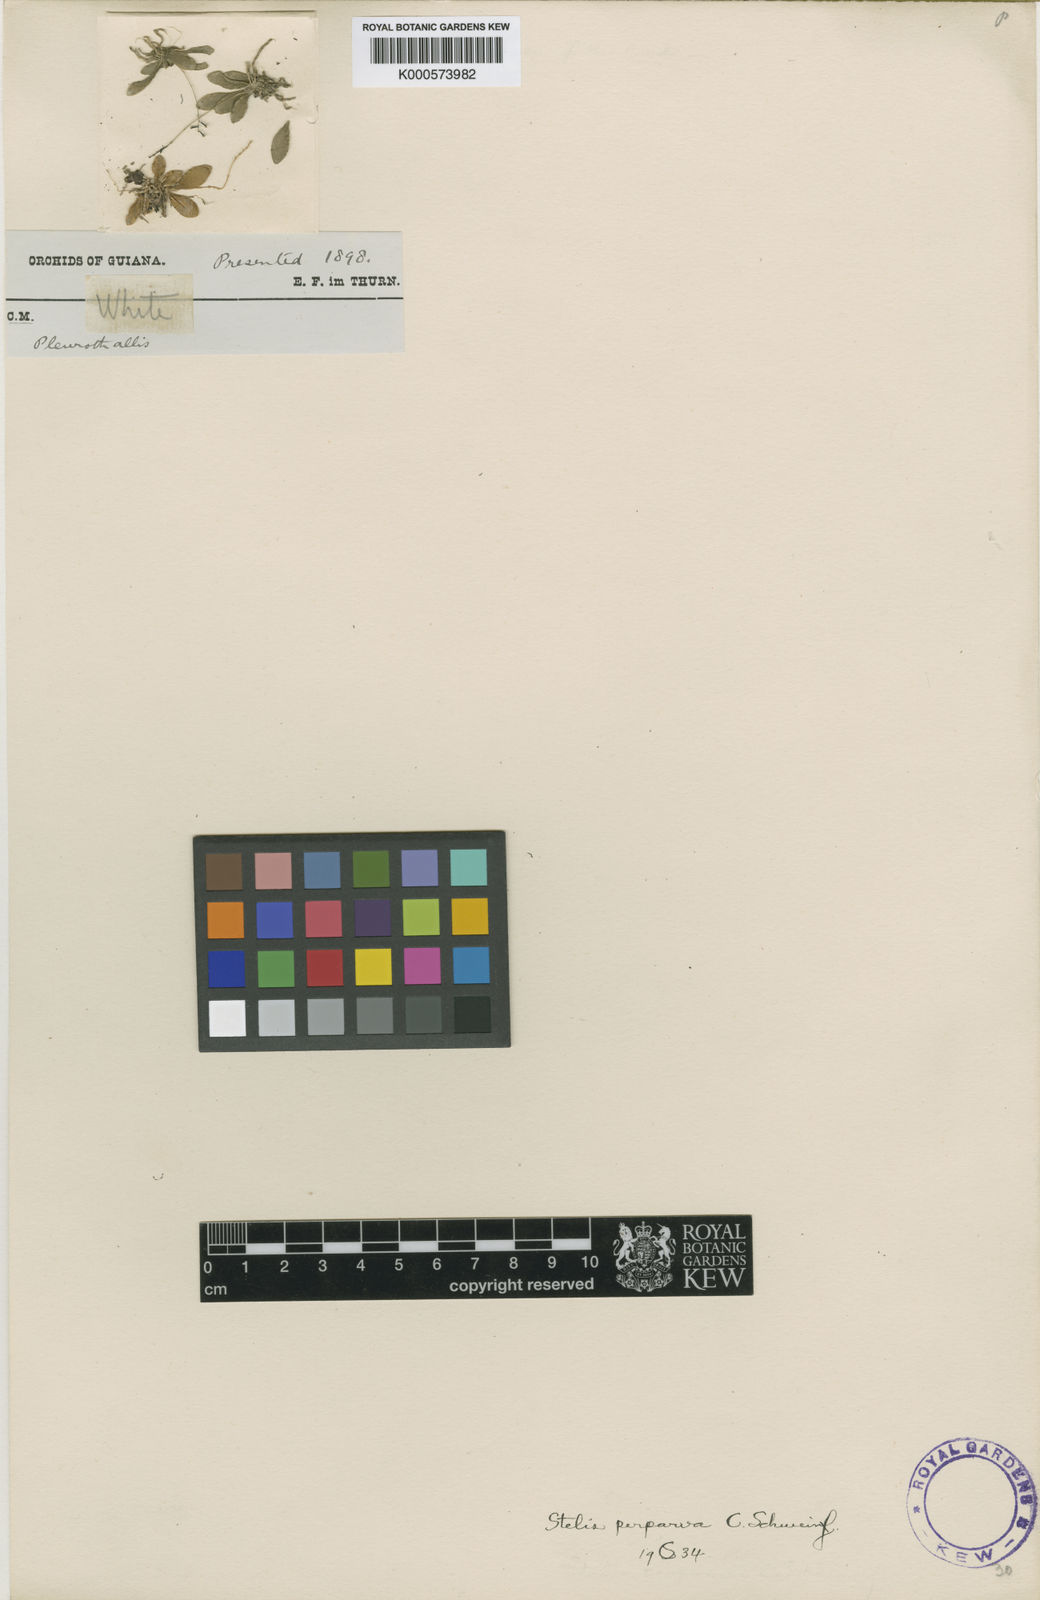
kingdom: Plantae
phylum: Tracheophyta
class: Liliopsida
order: Asparagales
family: Orchidaceae
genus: Stelis
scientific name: Stelis perparva
